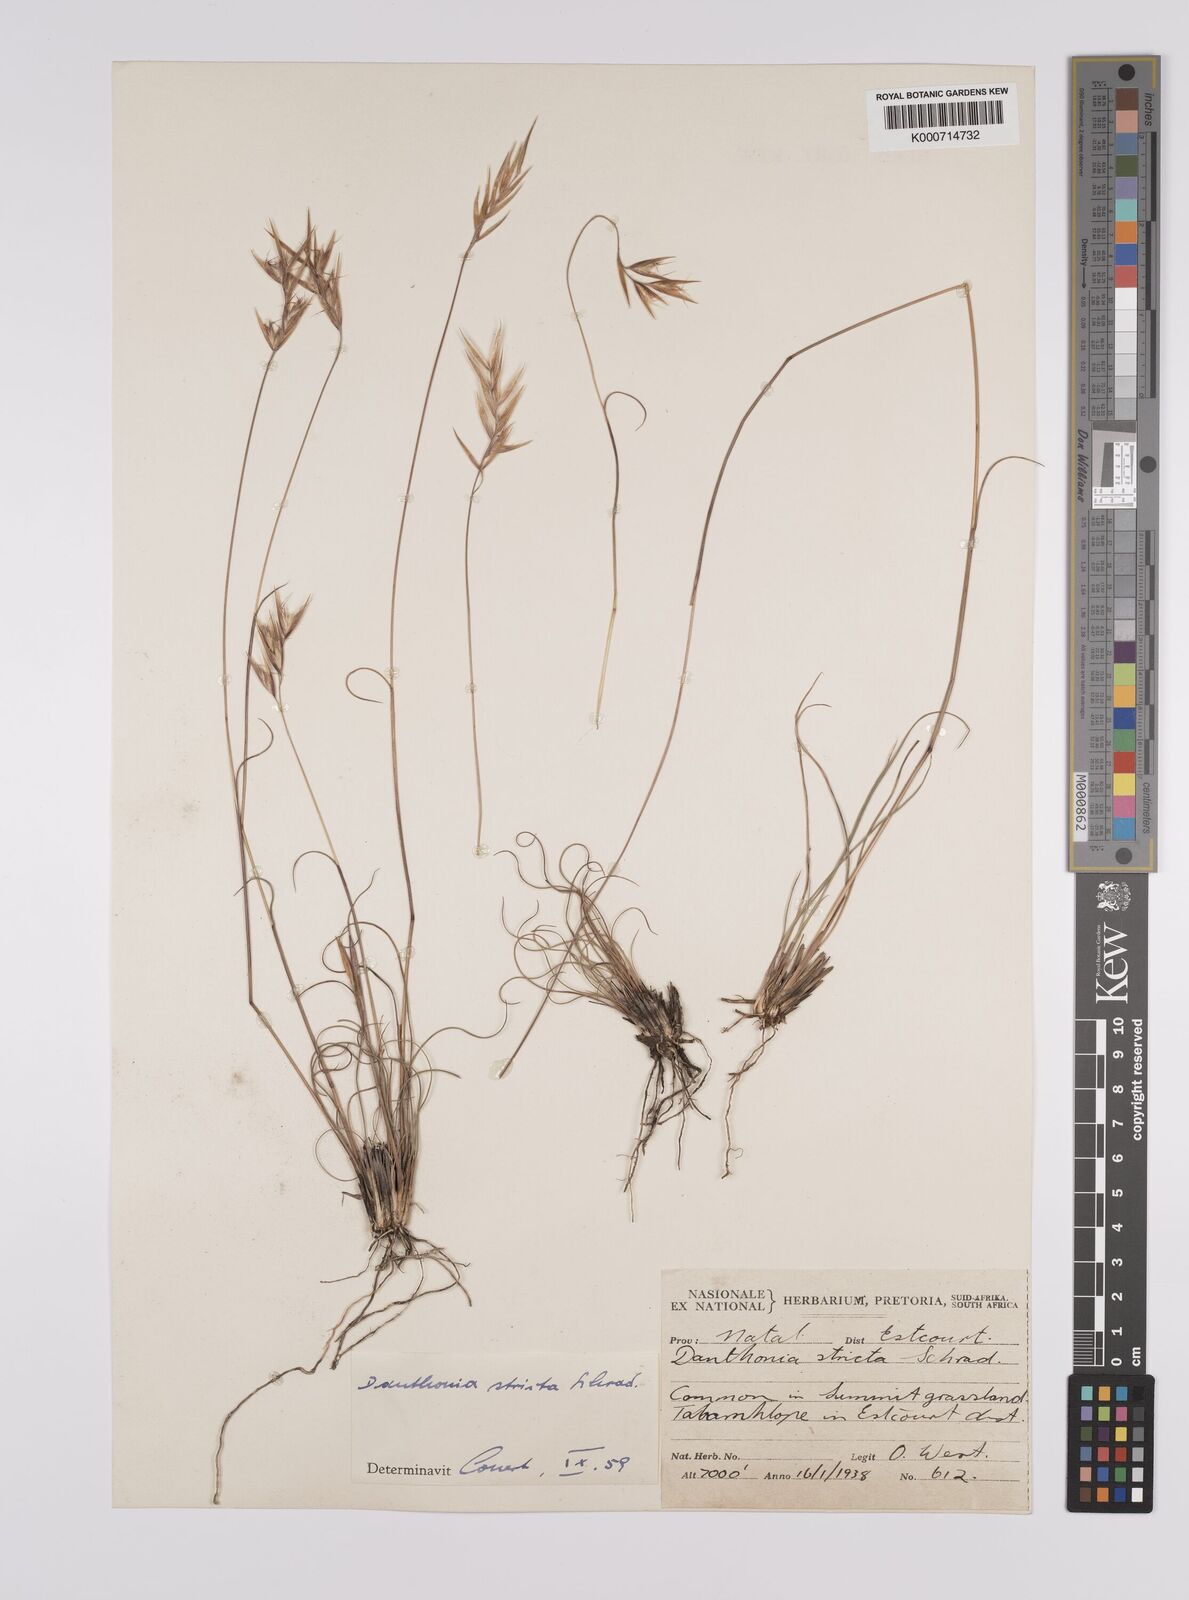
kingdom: Plantae
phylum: Tracheophyta
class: Liliopsida
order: Poales
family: Poaceae
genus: Rytidosperma
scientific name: Rytidosperma
